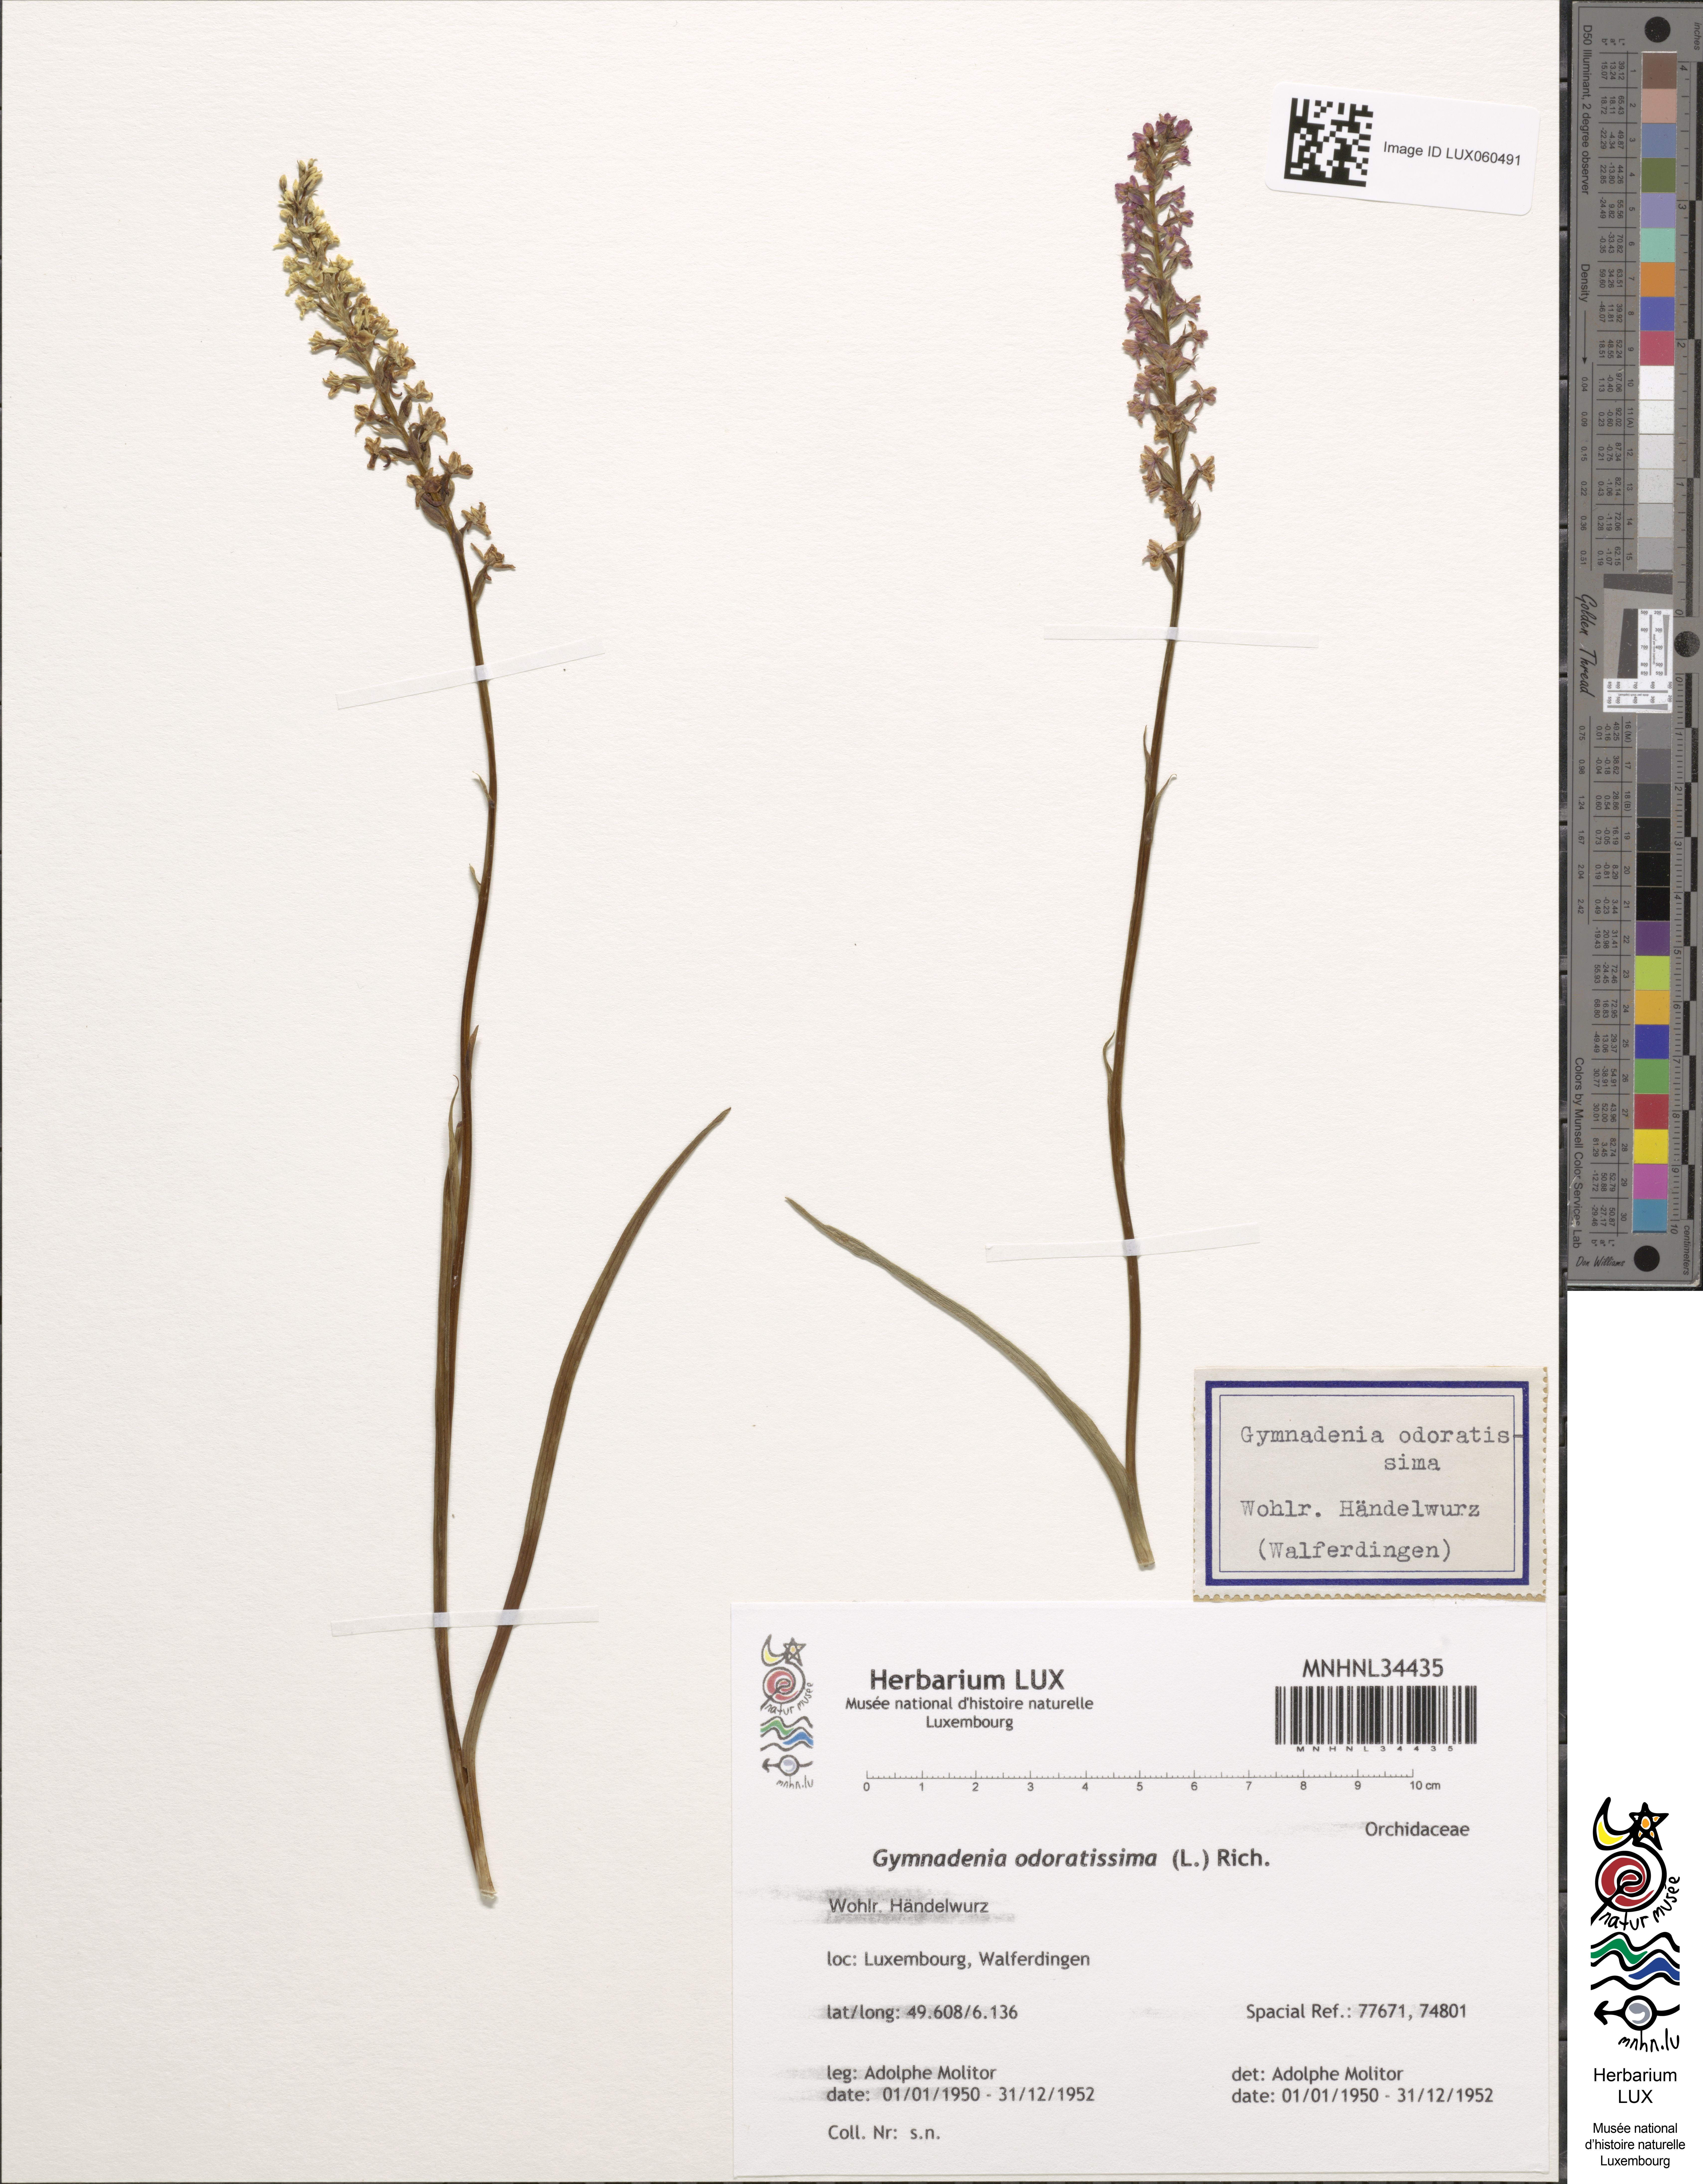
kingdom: Plantae
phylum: Tracheophyta
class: Liliopsida
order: Asparagales
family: Orchidaceae
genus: Gymnadenia
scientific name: Gymnadenia odoratissima
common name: Scented gymnadenia
